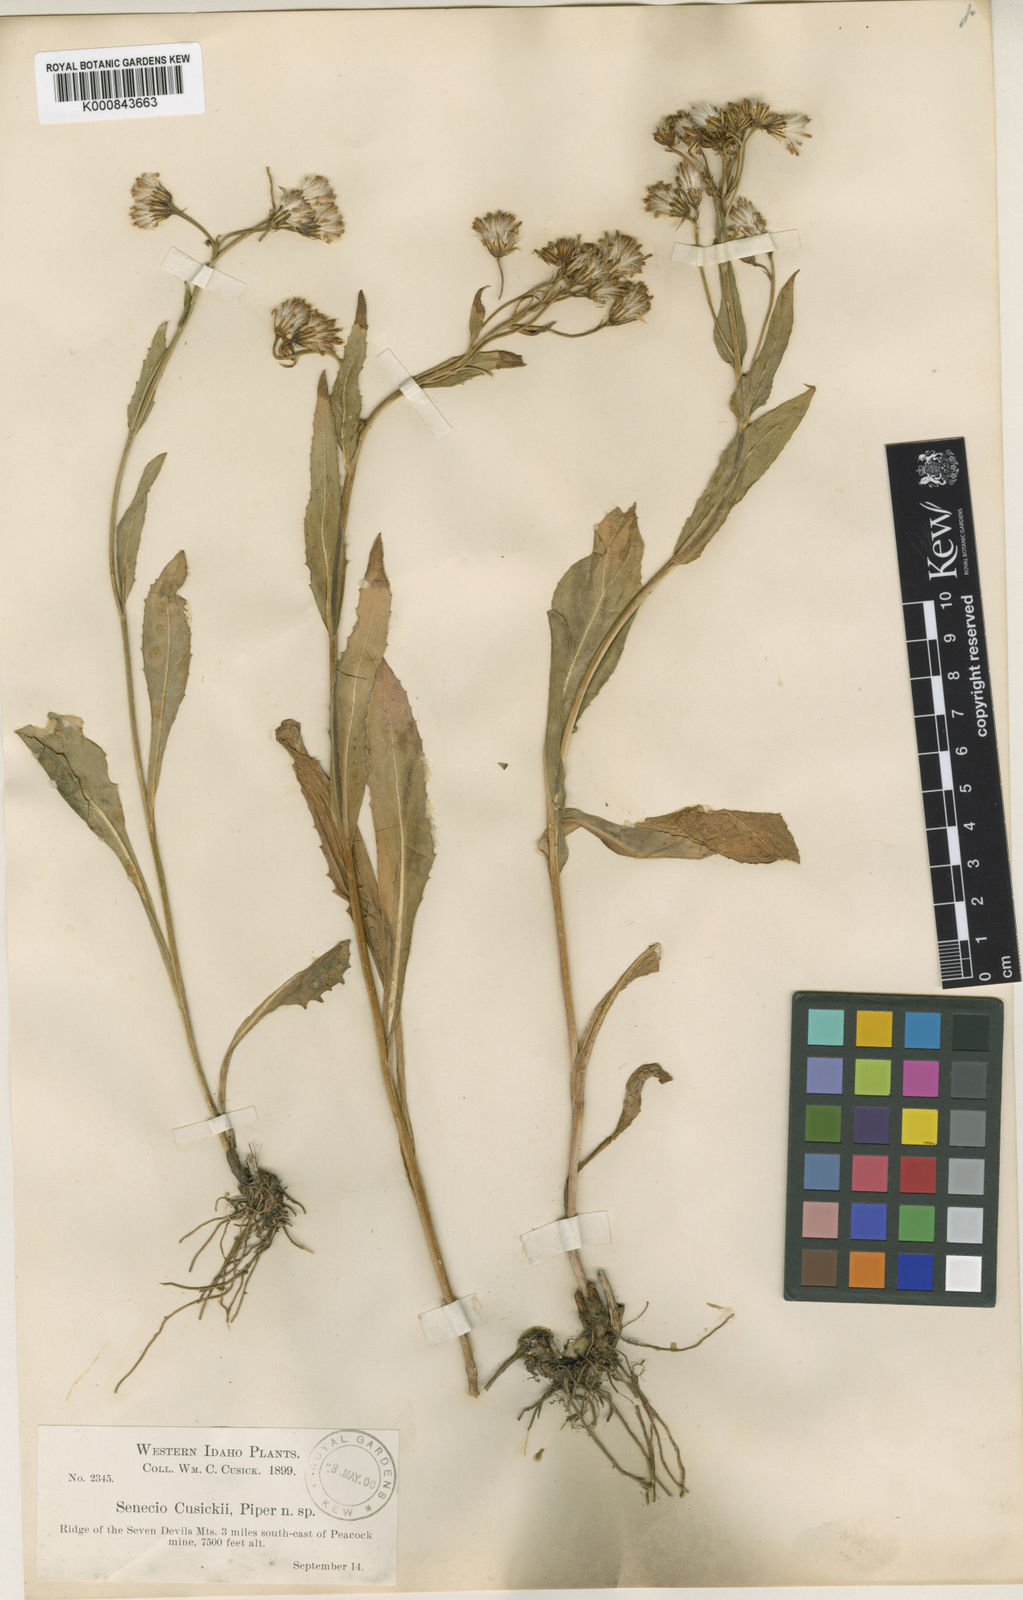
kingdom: Plantae
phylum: Tracheophyta
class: Magnoliopsida
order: Asterales
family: Asteraceae
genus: Senecio
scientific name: Senecio
